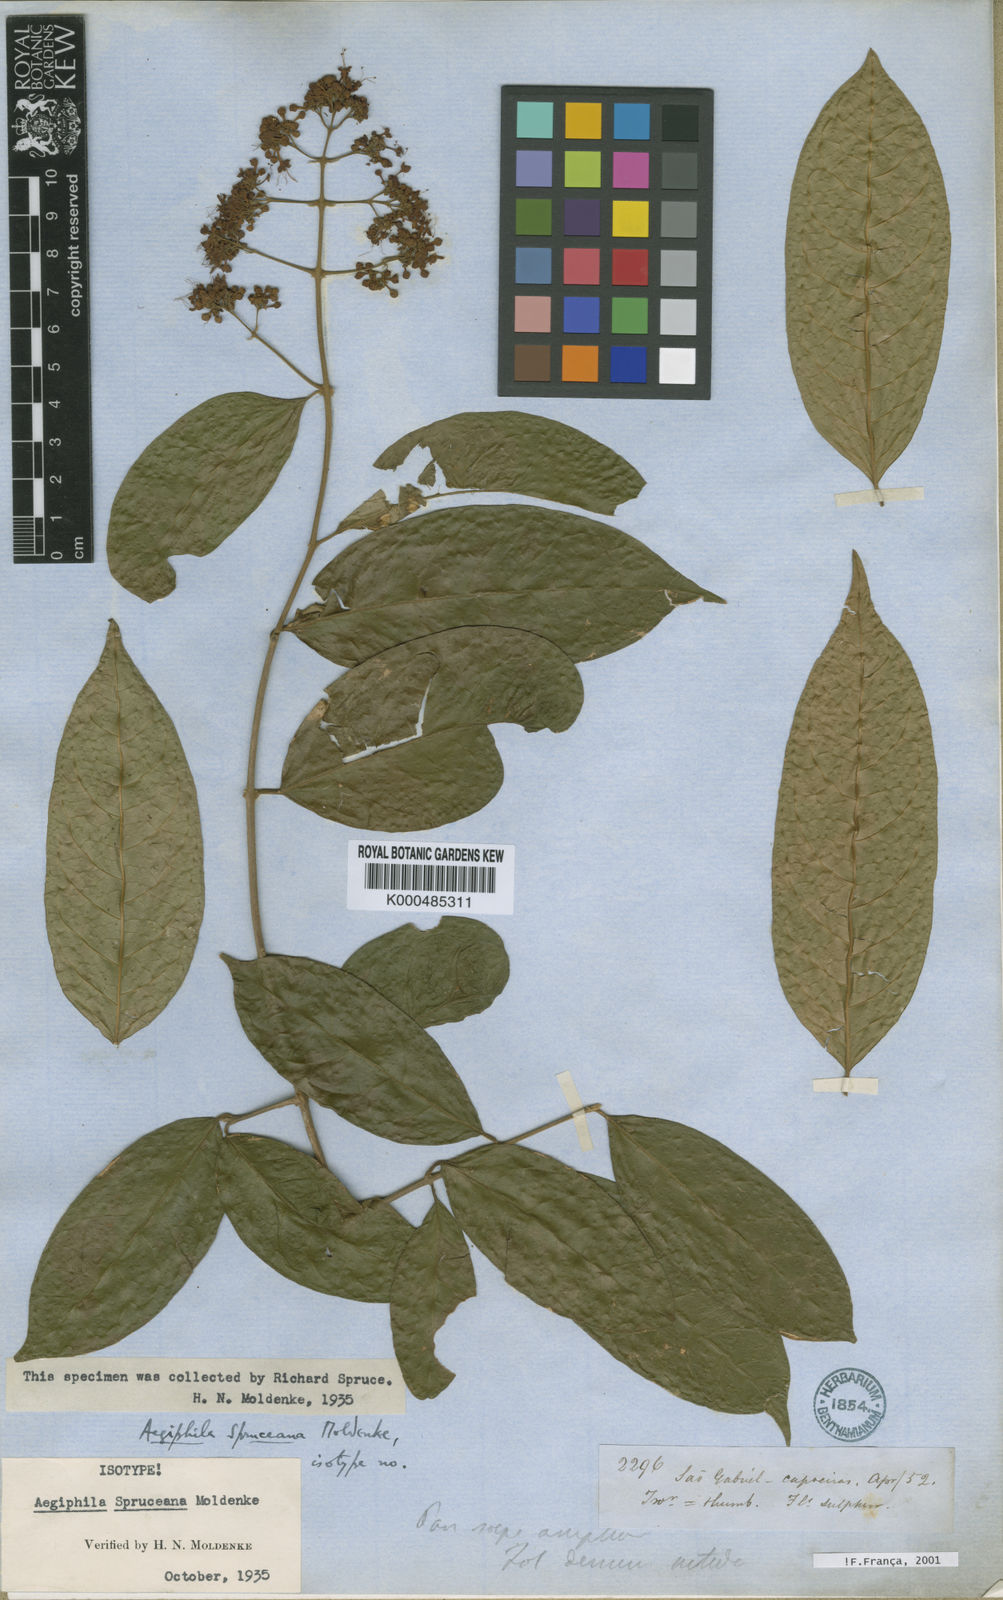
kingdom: Plantae
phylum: Tracheophyta
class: Magnoliopsida
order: Lamiales
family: Lamiaceae
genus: Aegiphila
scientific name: Aegiphila spruceana
